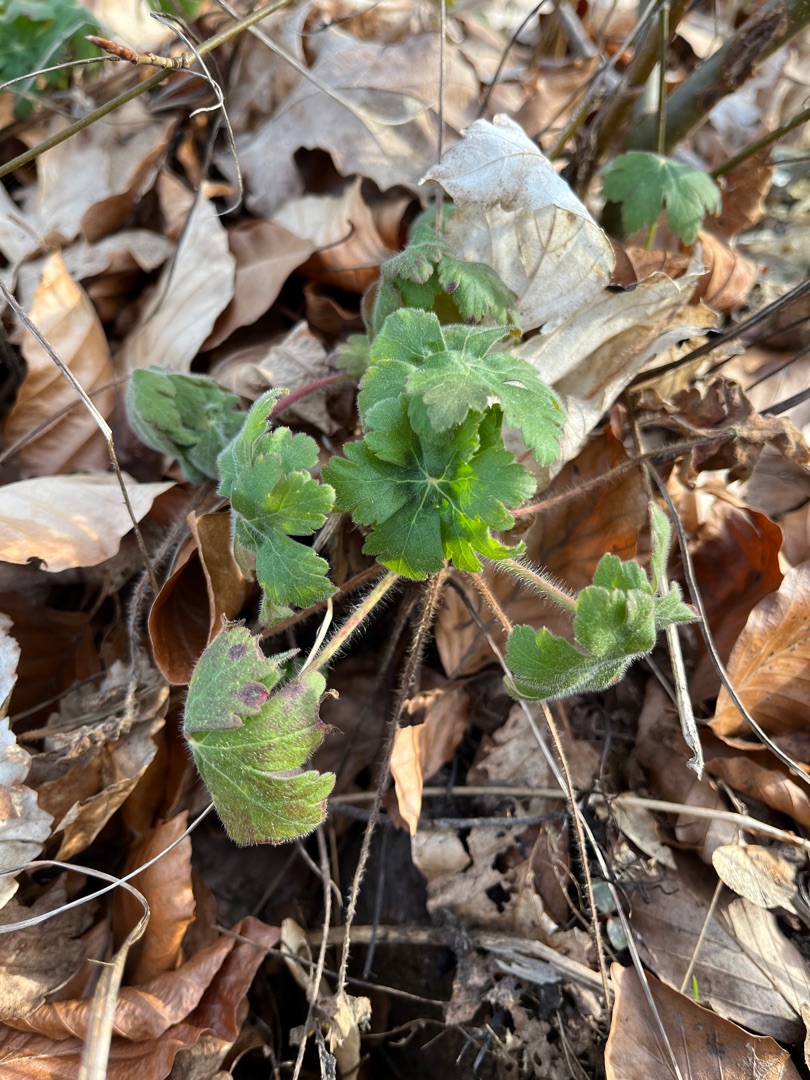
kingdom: Plantae
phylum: Tracheophyta
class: Magnoliopsida
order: Geraniales
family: Geraniaceae
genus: Geranium
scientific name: Geranium macrorrhizum
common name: Storrodet storkenæb
